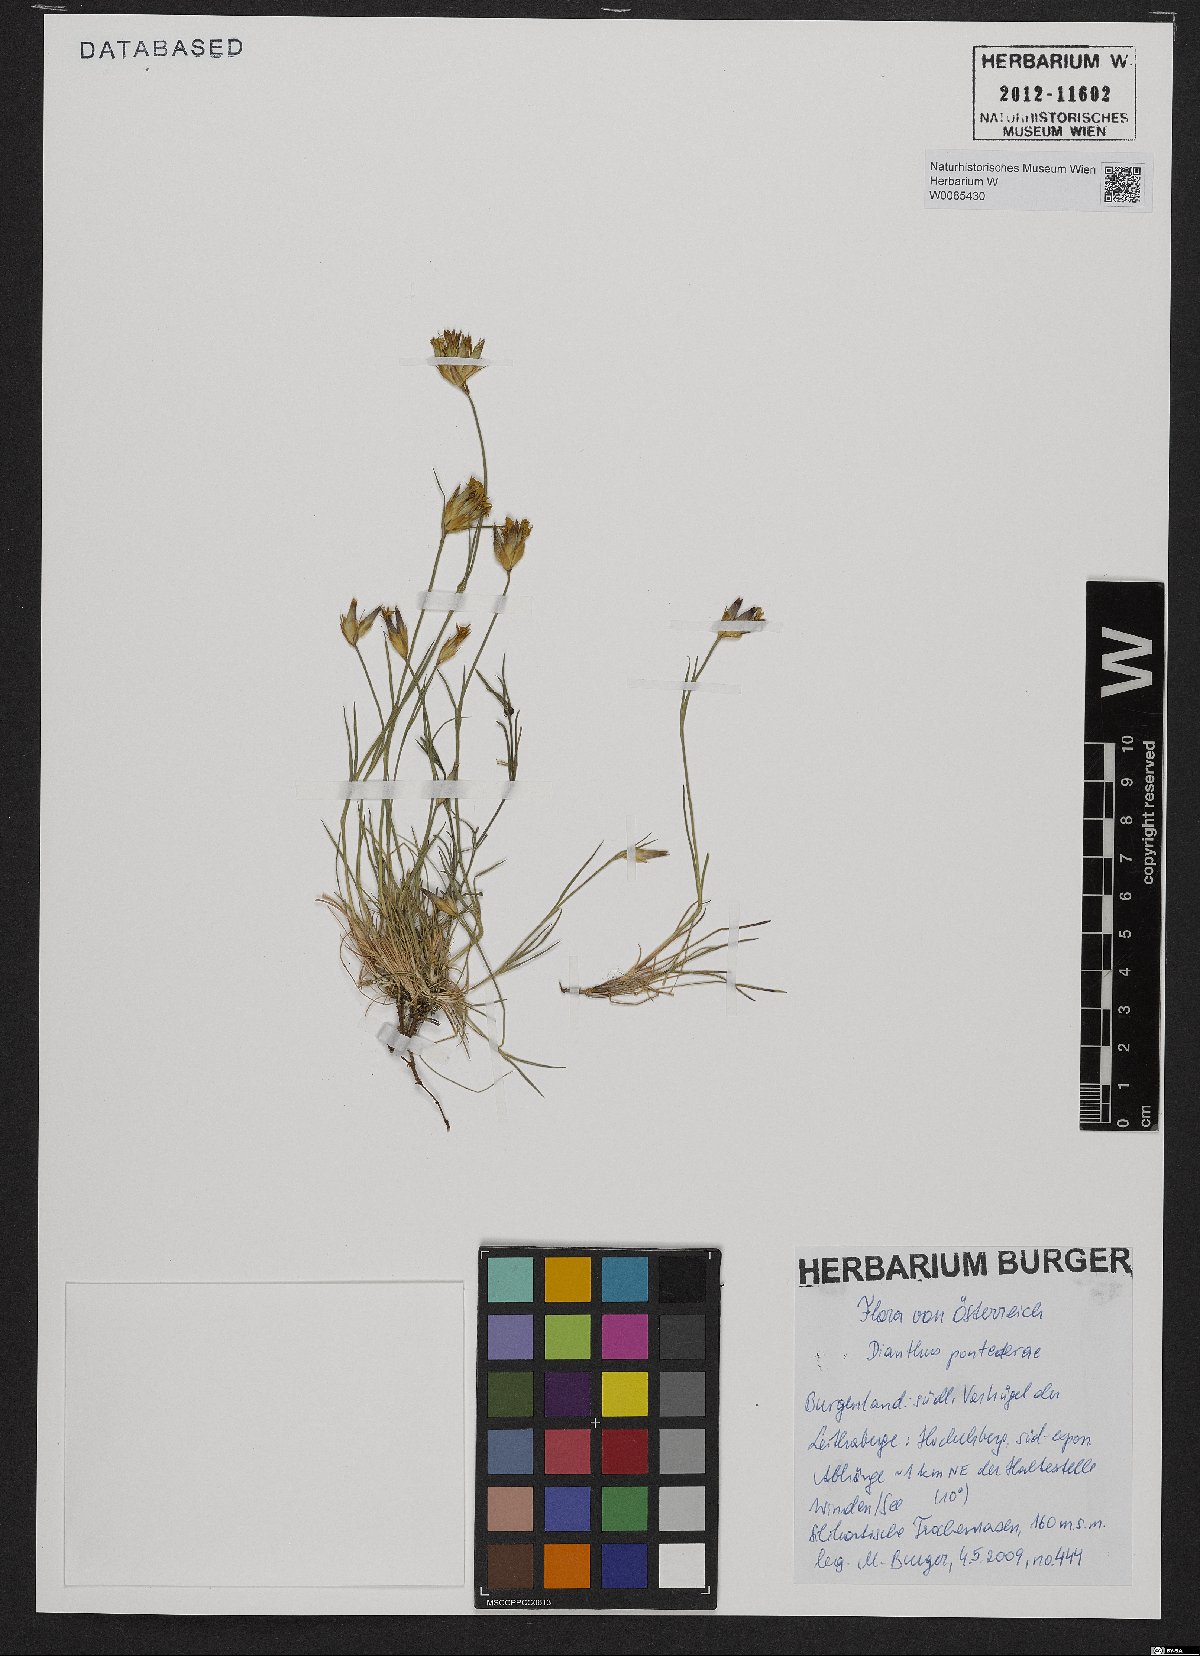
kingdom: Plantae
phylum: Tracheophyta
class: Magnoliopsida
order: Caryophyllales
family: Caryophyllaceae
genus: Dianthus
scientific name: Dianthus pontederae
